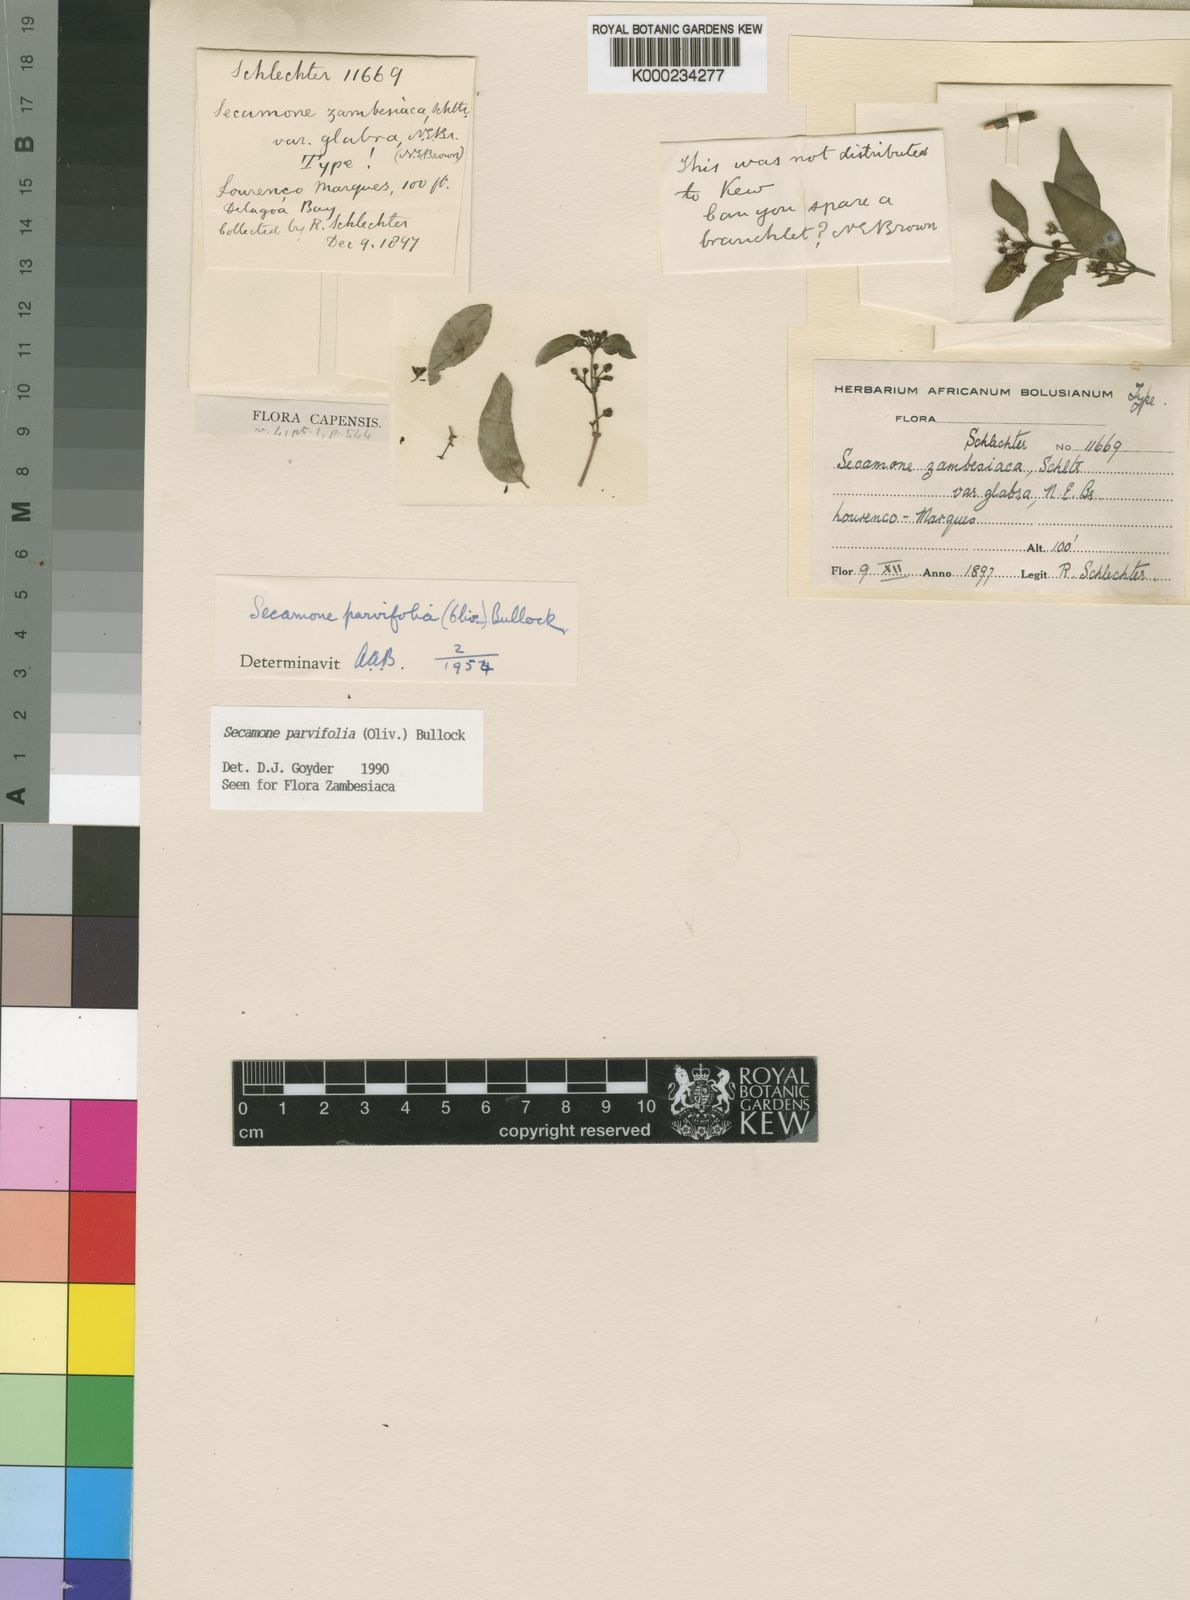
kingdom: Plantae
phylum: Tracheophyta
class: Magnoliopsida
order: Gentianales
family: Apocynaceae
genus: Secamone
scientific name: Secamone schweinfurthii
